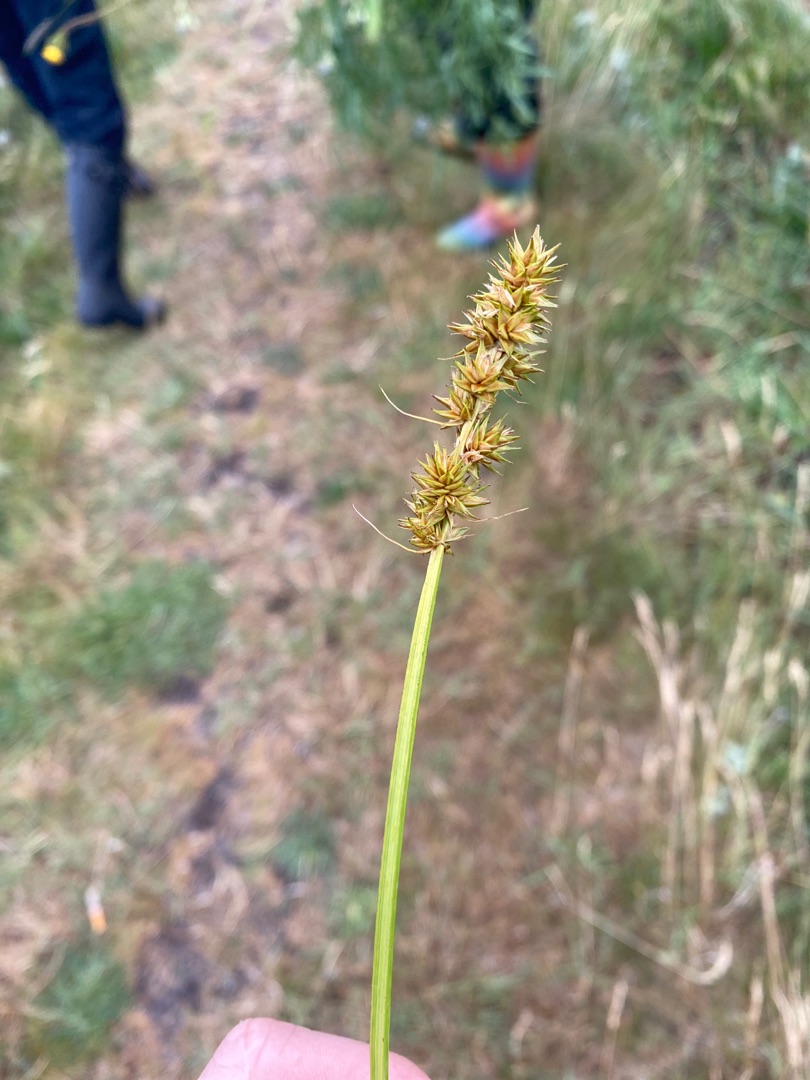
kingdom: Plantae
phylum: Tracheophyta
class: Liliopsida
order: Poales
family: Cyperaceae
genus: Carex
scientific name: Carex otrubae
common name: Sylt-star
